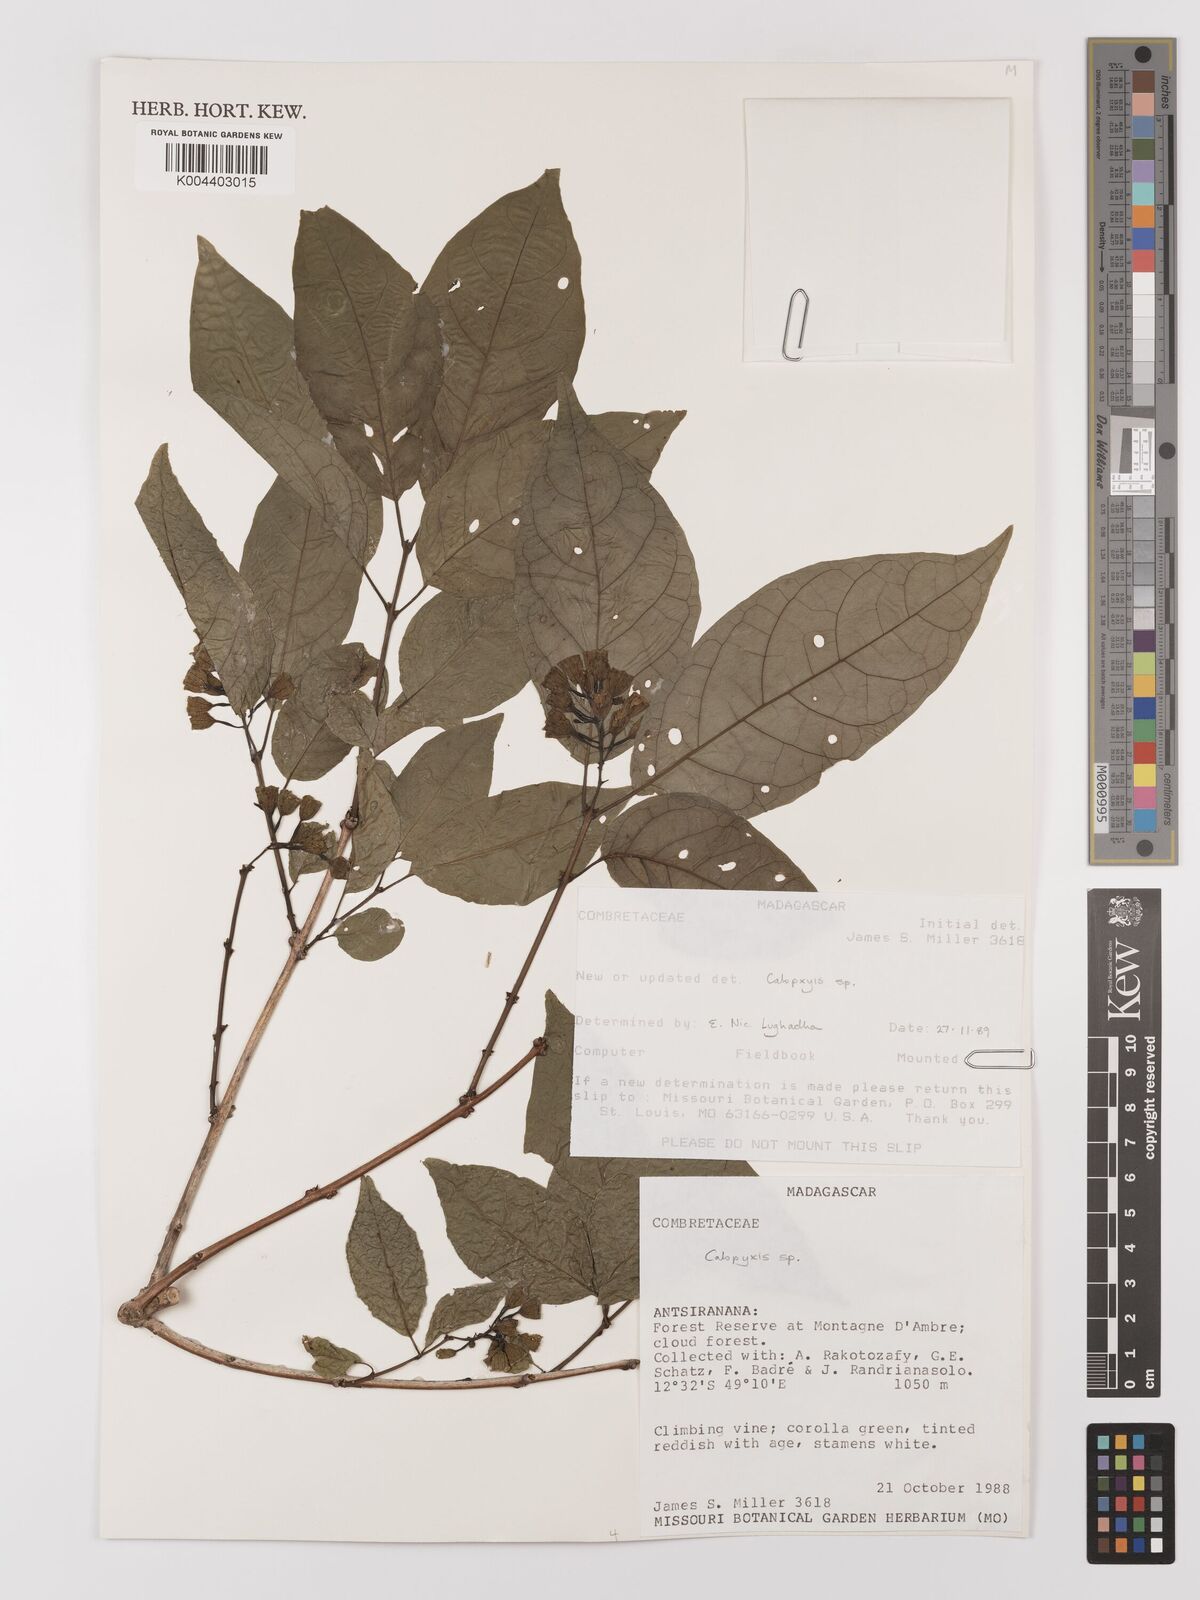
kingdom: Plantae
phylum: Tracheophyta
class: Magnoliopsida
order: Myrtales
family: Combretaceae
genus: Combretum
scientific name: Combretum
